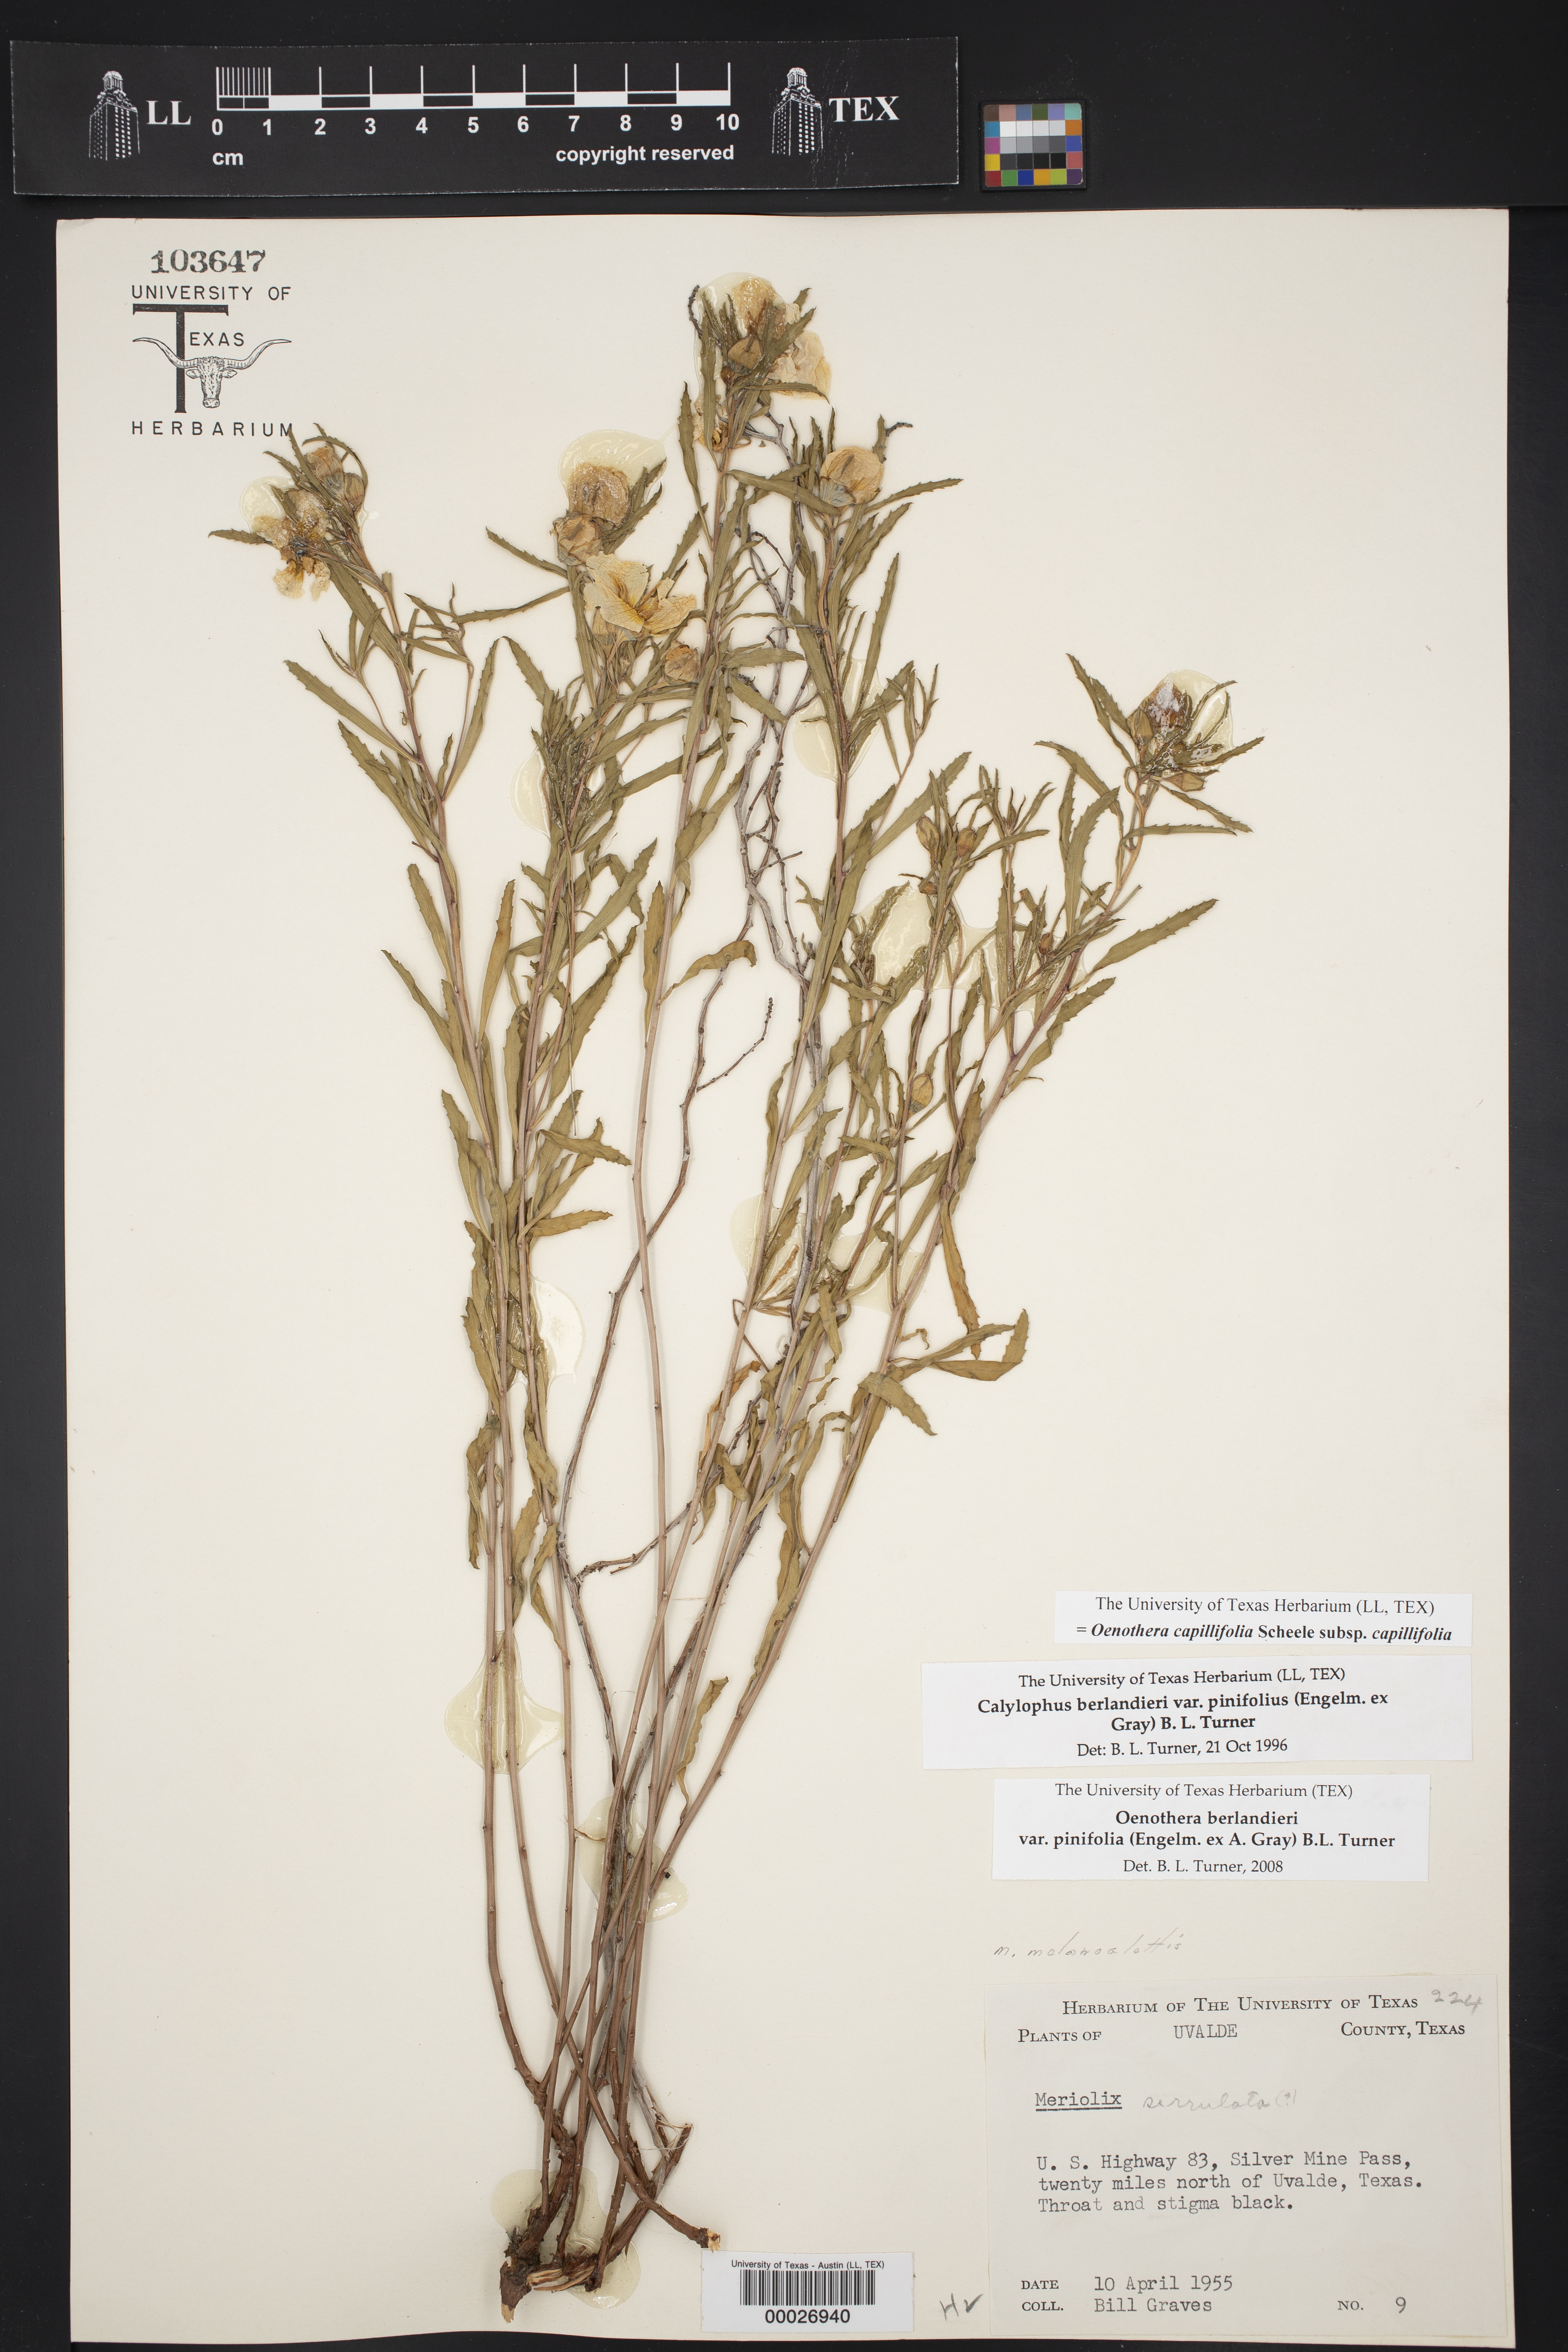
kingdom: Plantae
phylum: Tracheophyta
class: Magnoliopsida
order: Myrtales
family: Onagraceae
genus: Oenothera
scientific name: Oenothera capillifolia
